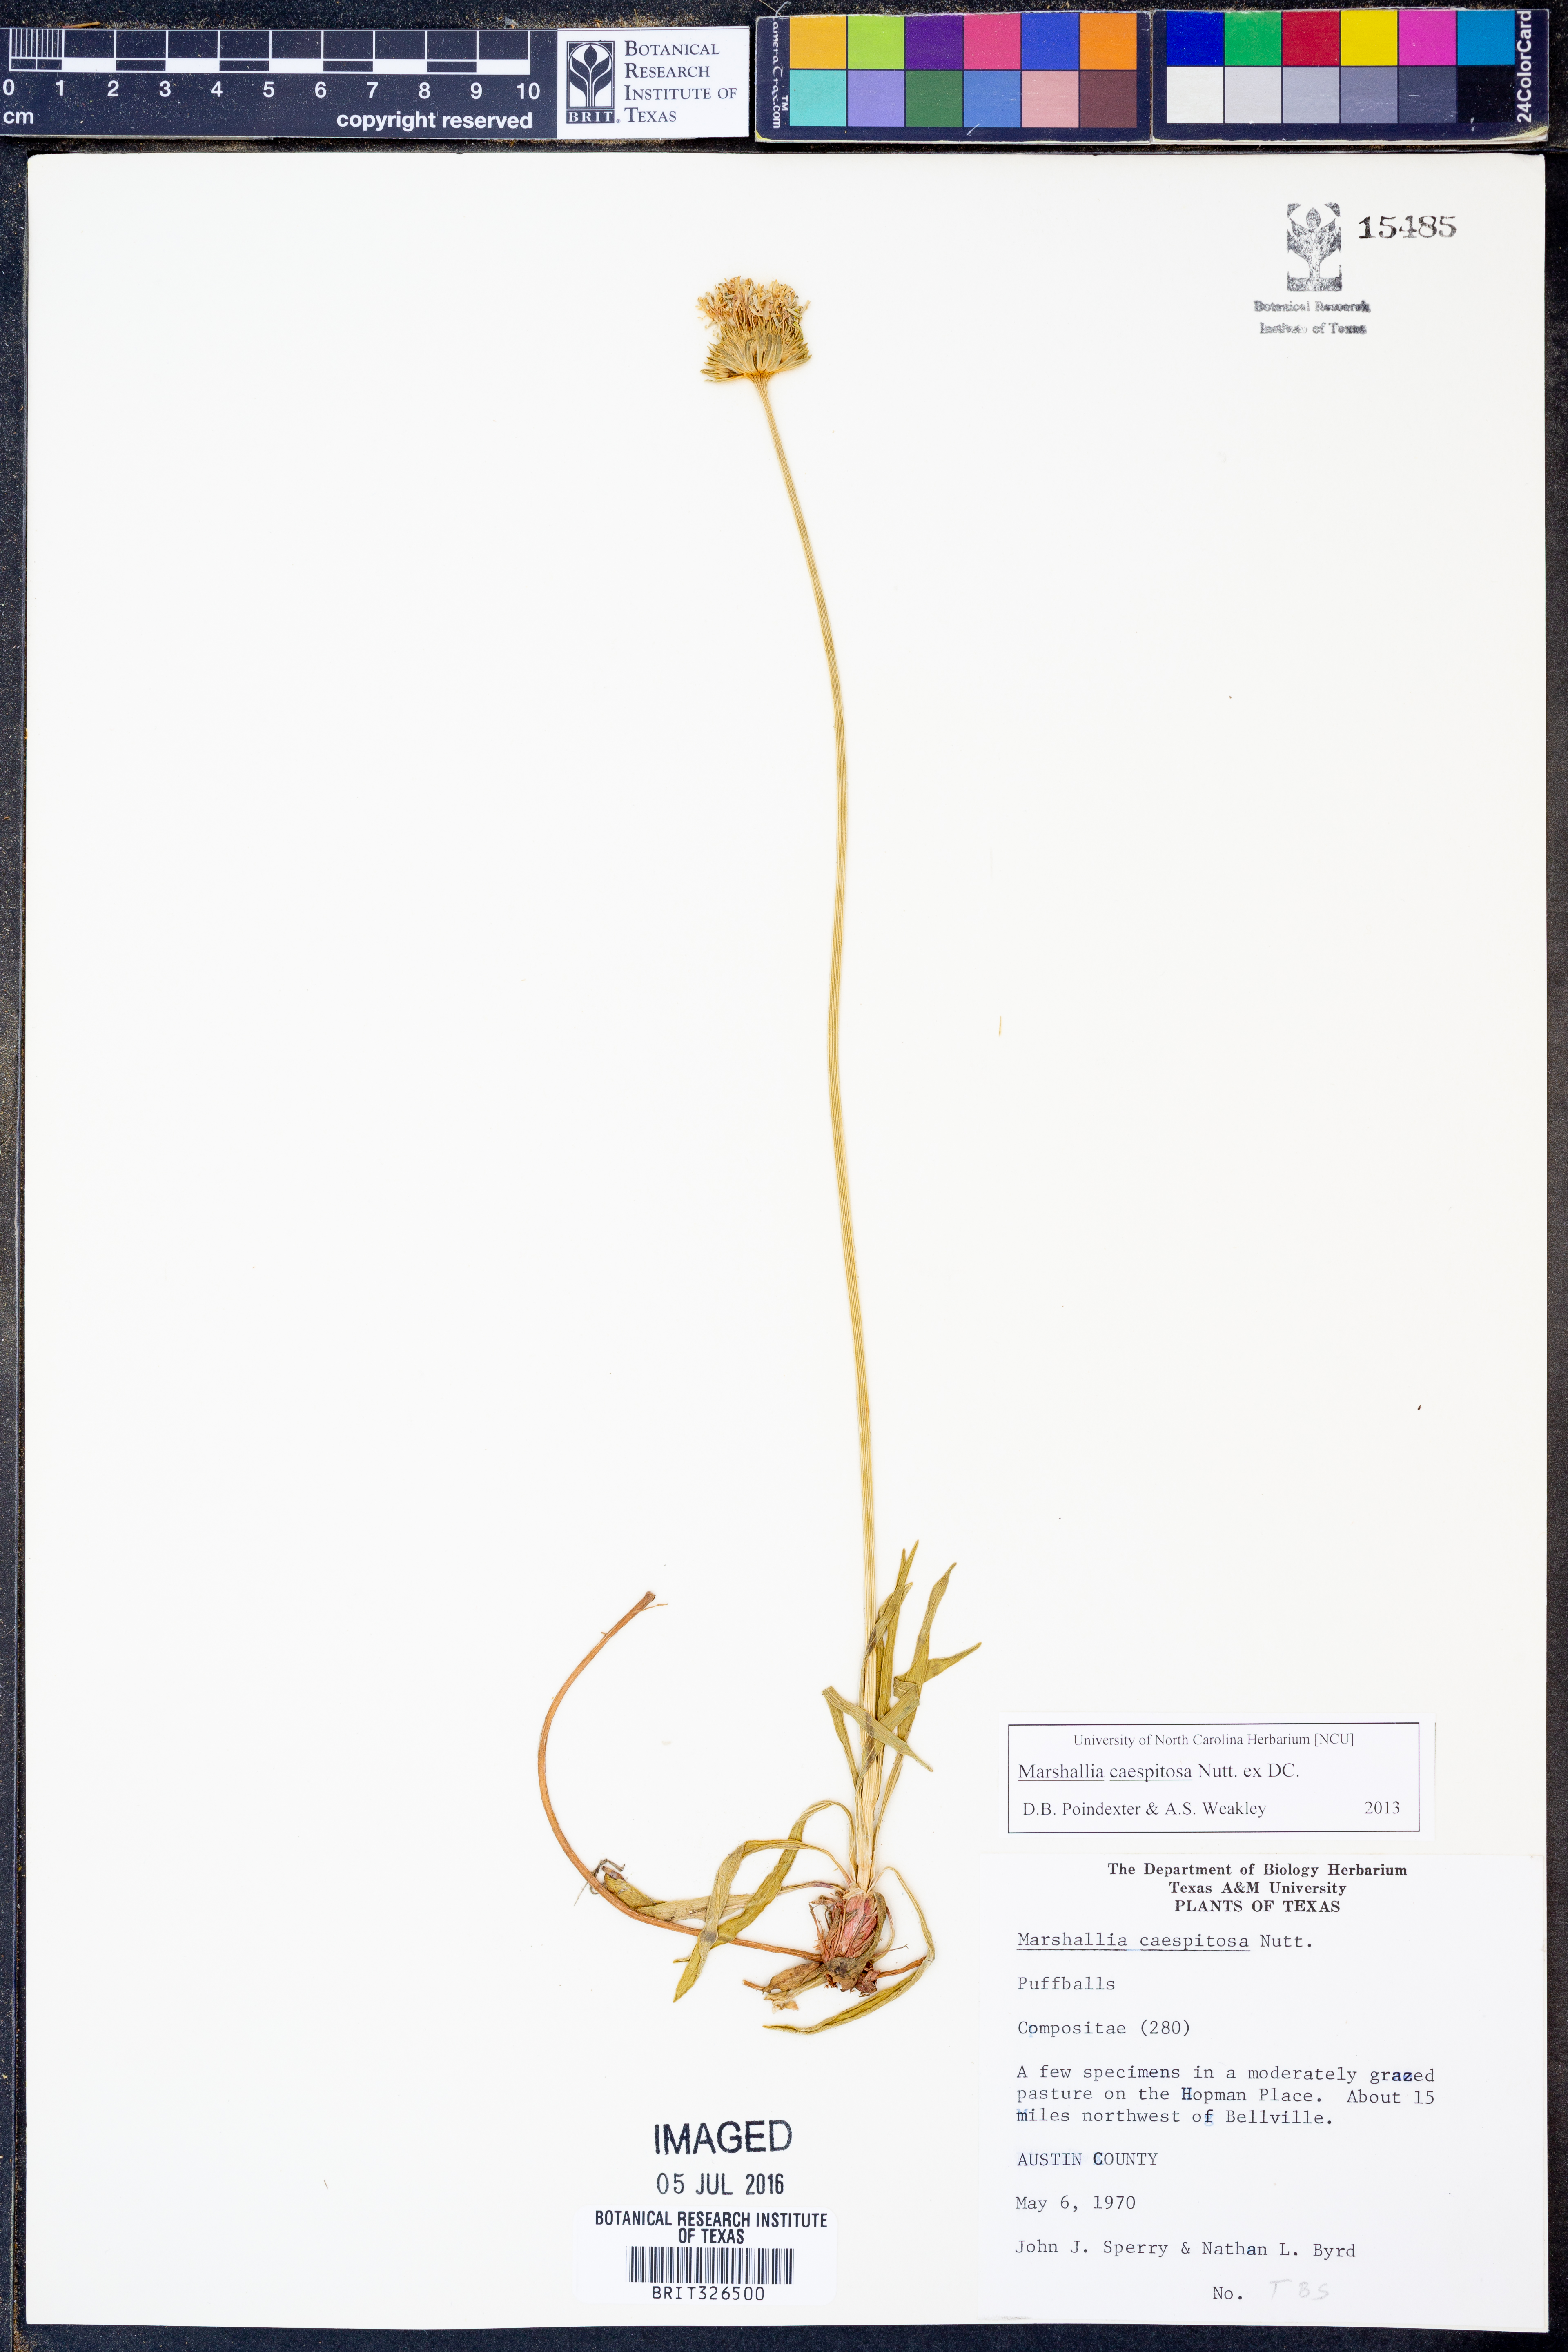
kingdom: Plantae
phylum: Tracheophyta
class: Magnoliopsida
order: Asterales
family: Asteraceae
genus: Marshallia
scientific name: Marshallia caespitosa
